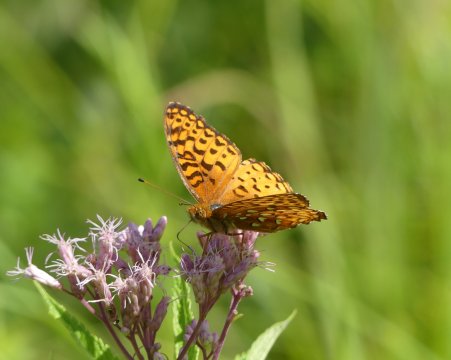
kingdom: Animalia
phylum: Arthropoda
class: Insecta
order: Lepidoptera
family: Nymphalidae
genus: Speyeria
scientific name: Speyeria aphrodite
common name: Aphrodite Fritillary
